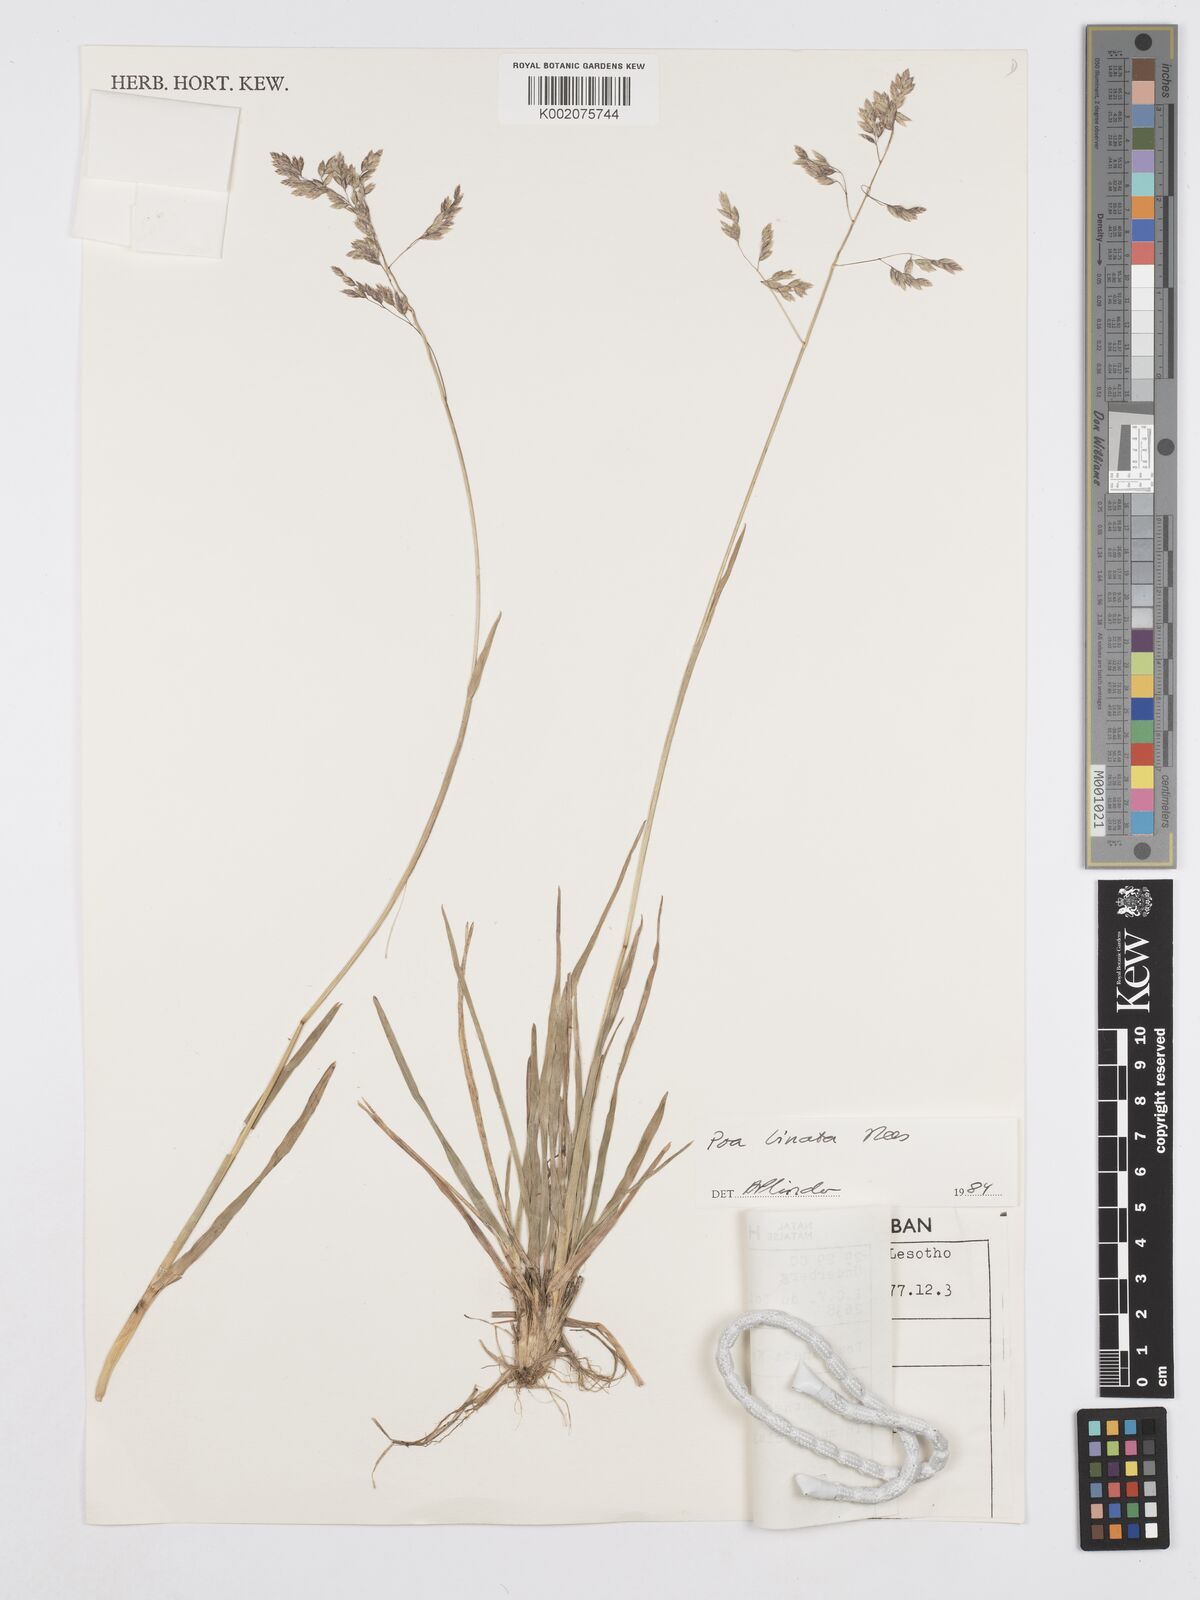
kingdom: Plantae
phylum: Tracheophyta
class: Liliopsida
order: Poales
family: Poaceae
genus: Poa
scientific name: Poa binata
